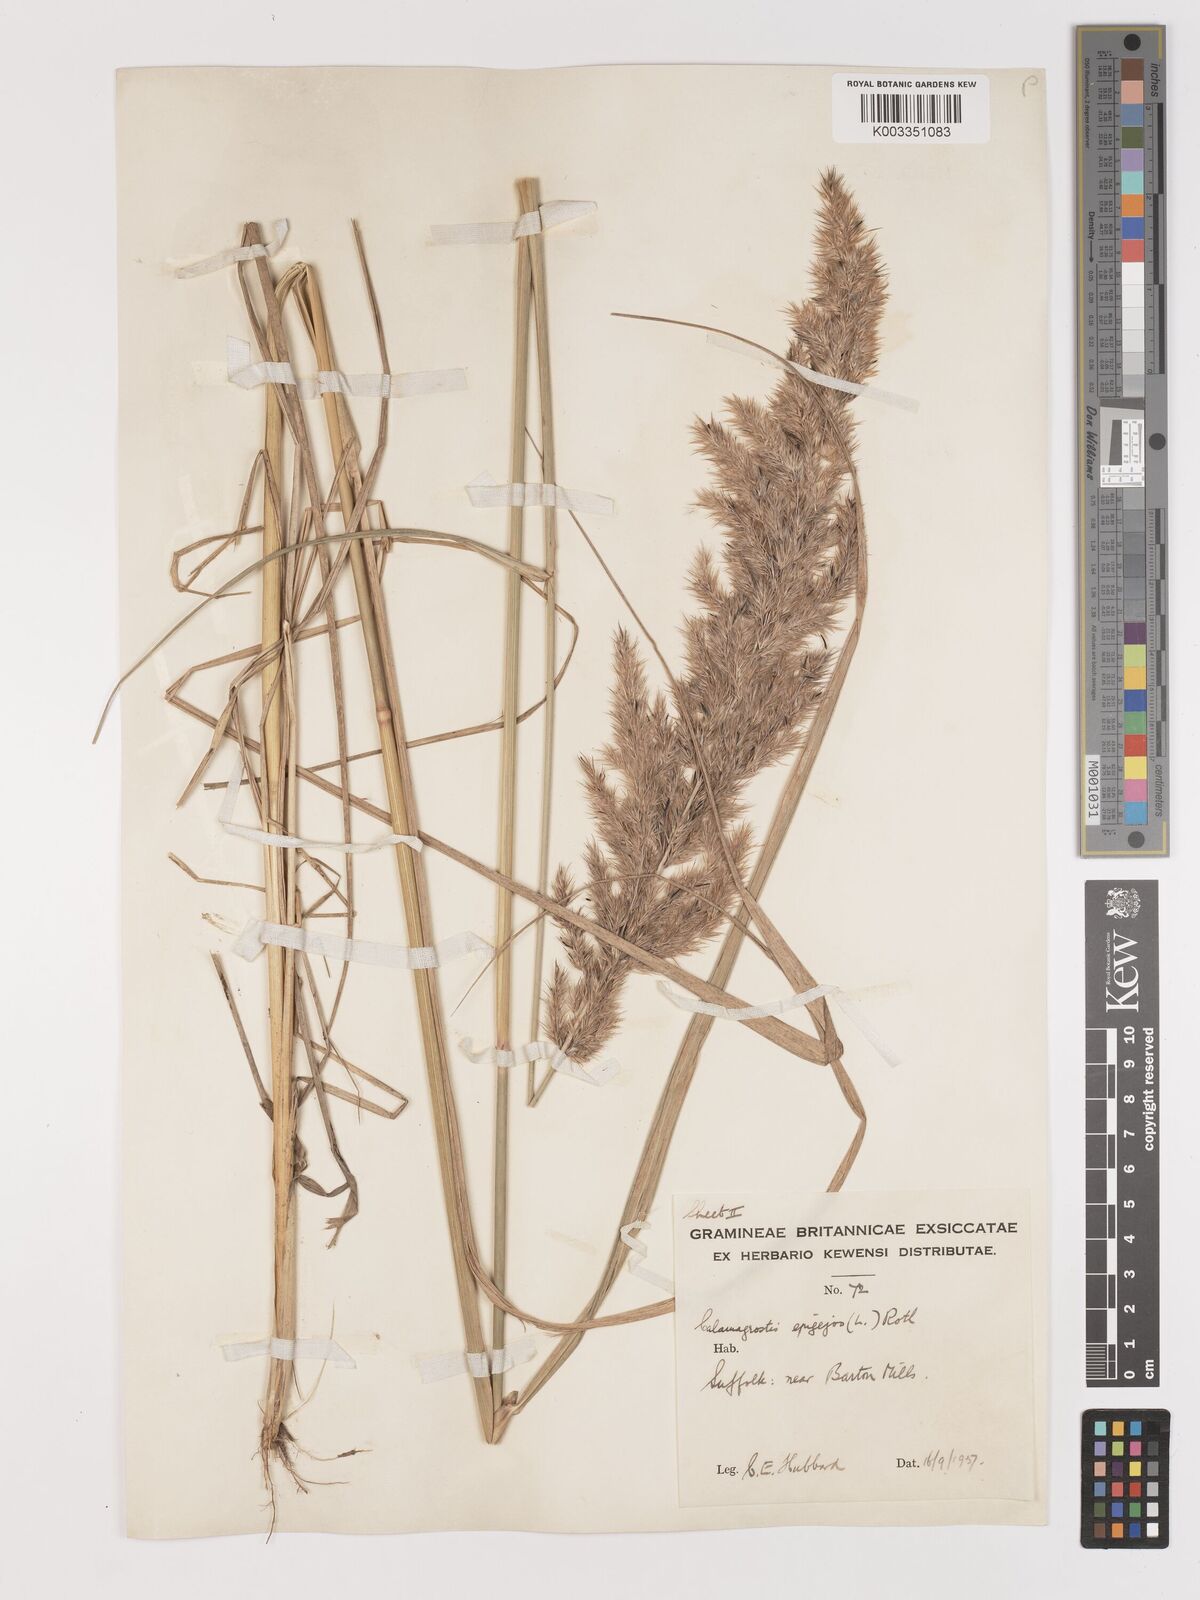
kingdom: Plantae
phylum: Tracheophyta
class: Liliopsida
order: Poales
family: Poaceae
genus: Calamagrostis
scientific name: Calamagrostis
